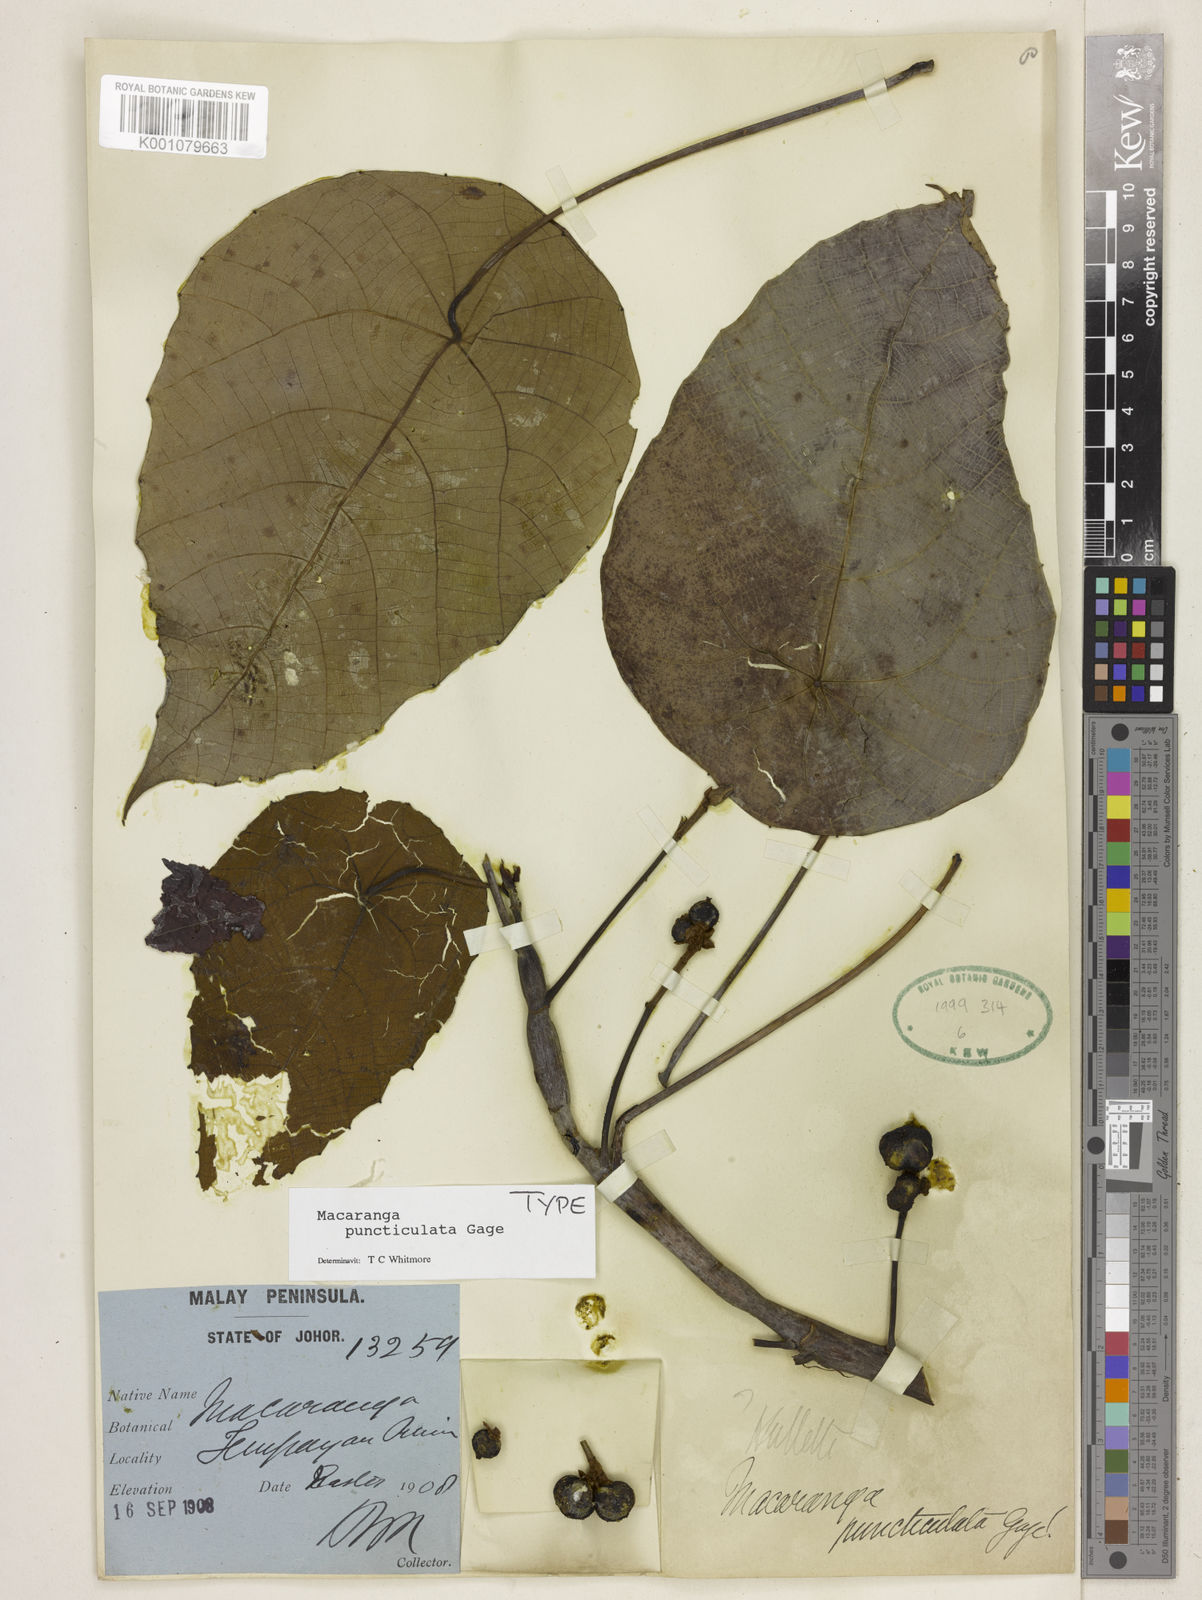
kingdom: Plantae
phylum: Tracheophyta
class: Magnoliopsida
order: Malpighiales
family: Euphorbiaceae
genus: Macaranga
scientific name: Macaranga puncticulata
